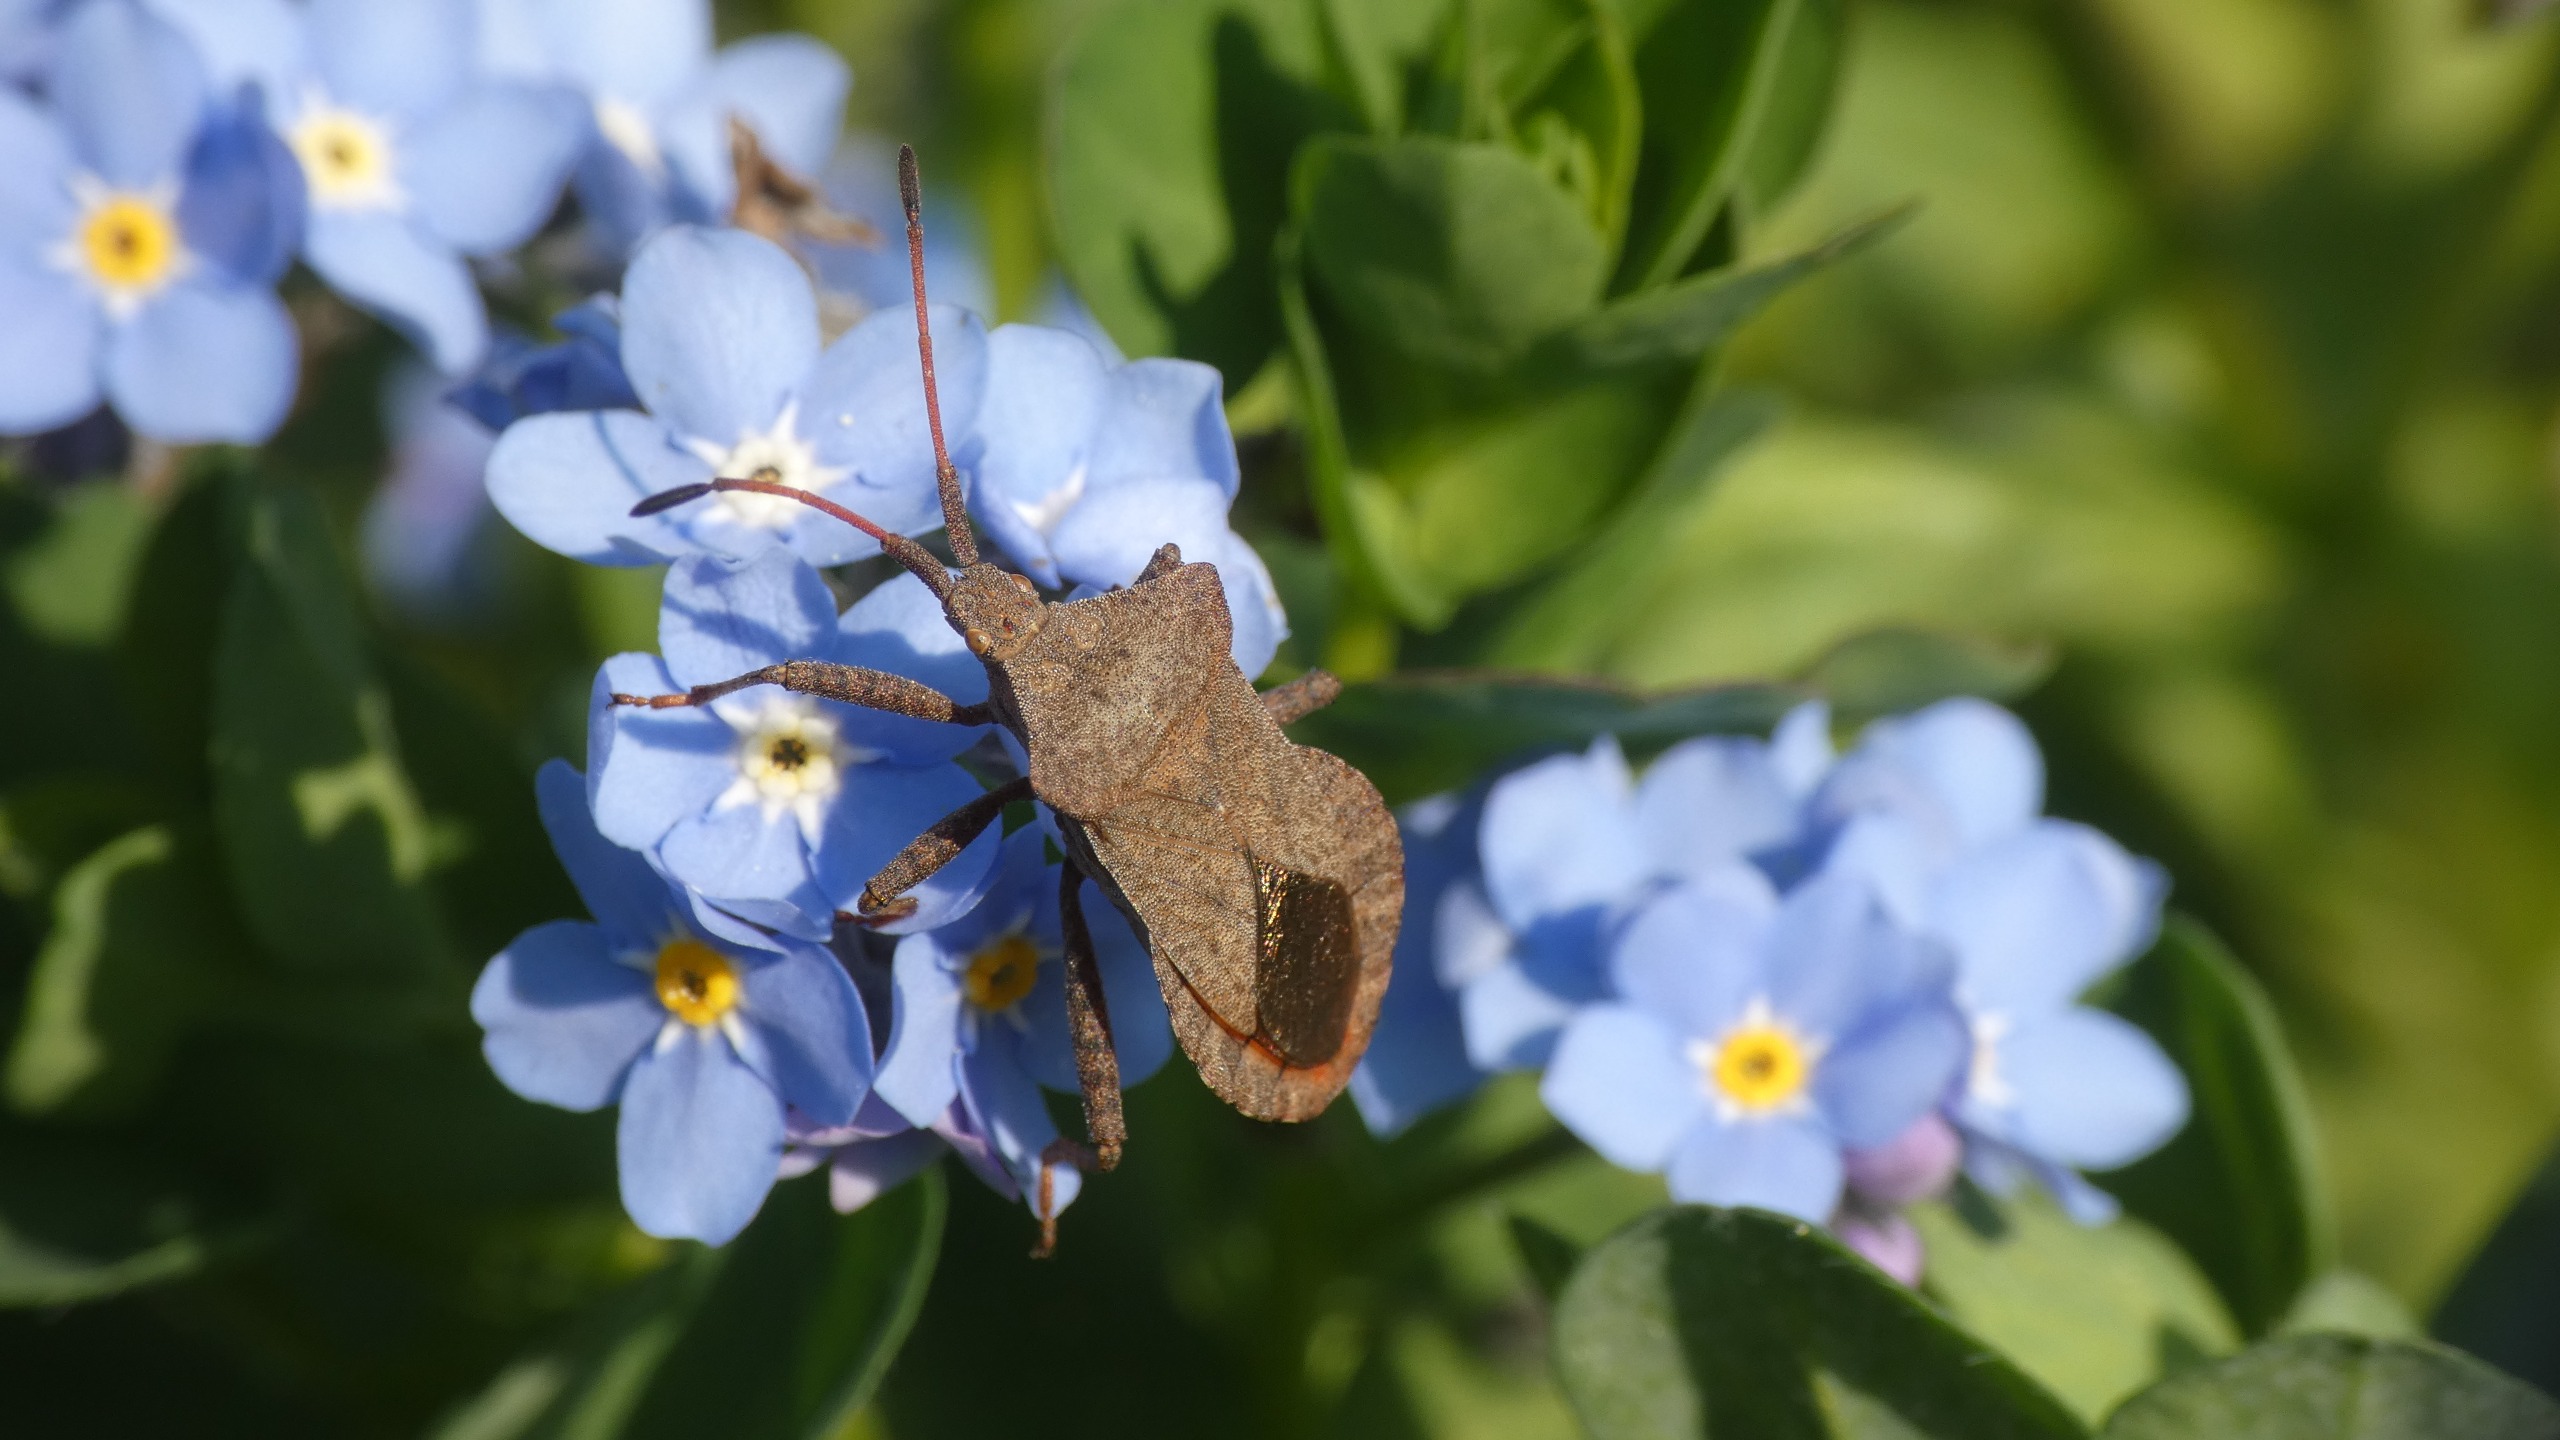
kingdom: Animalia
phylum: Arthropoda
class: Insecta
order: Hemiptera
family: Coreidae
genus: Coreus
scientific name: Coreus marginatus
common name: Skræppetæge
